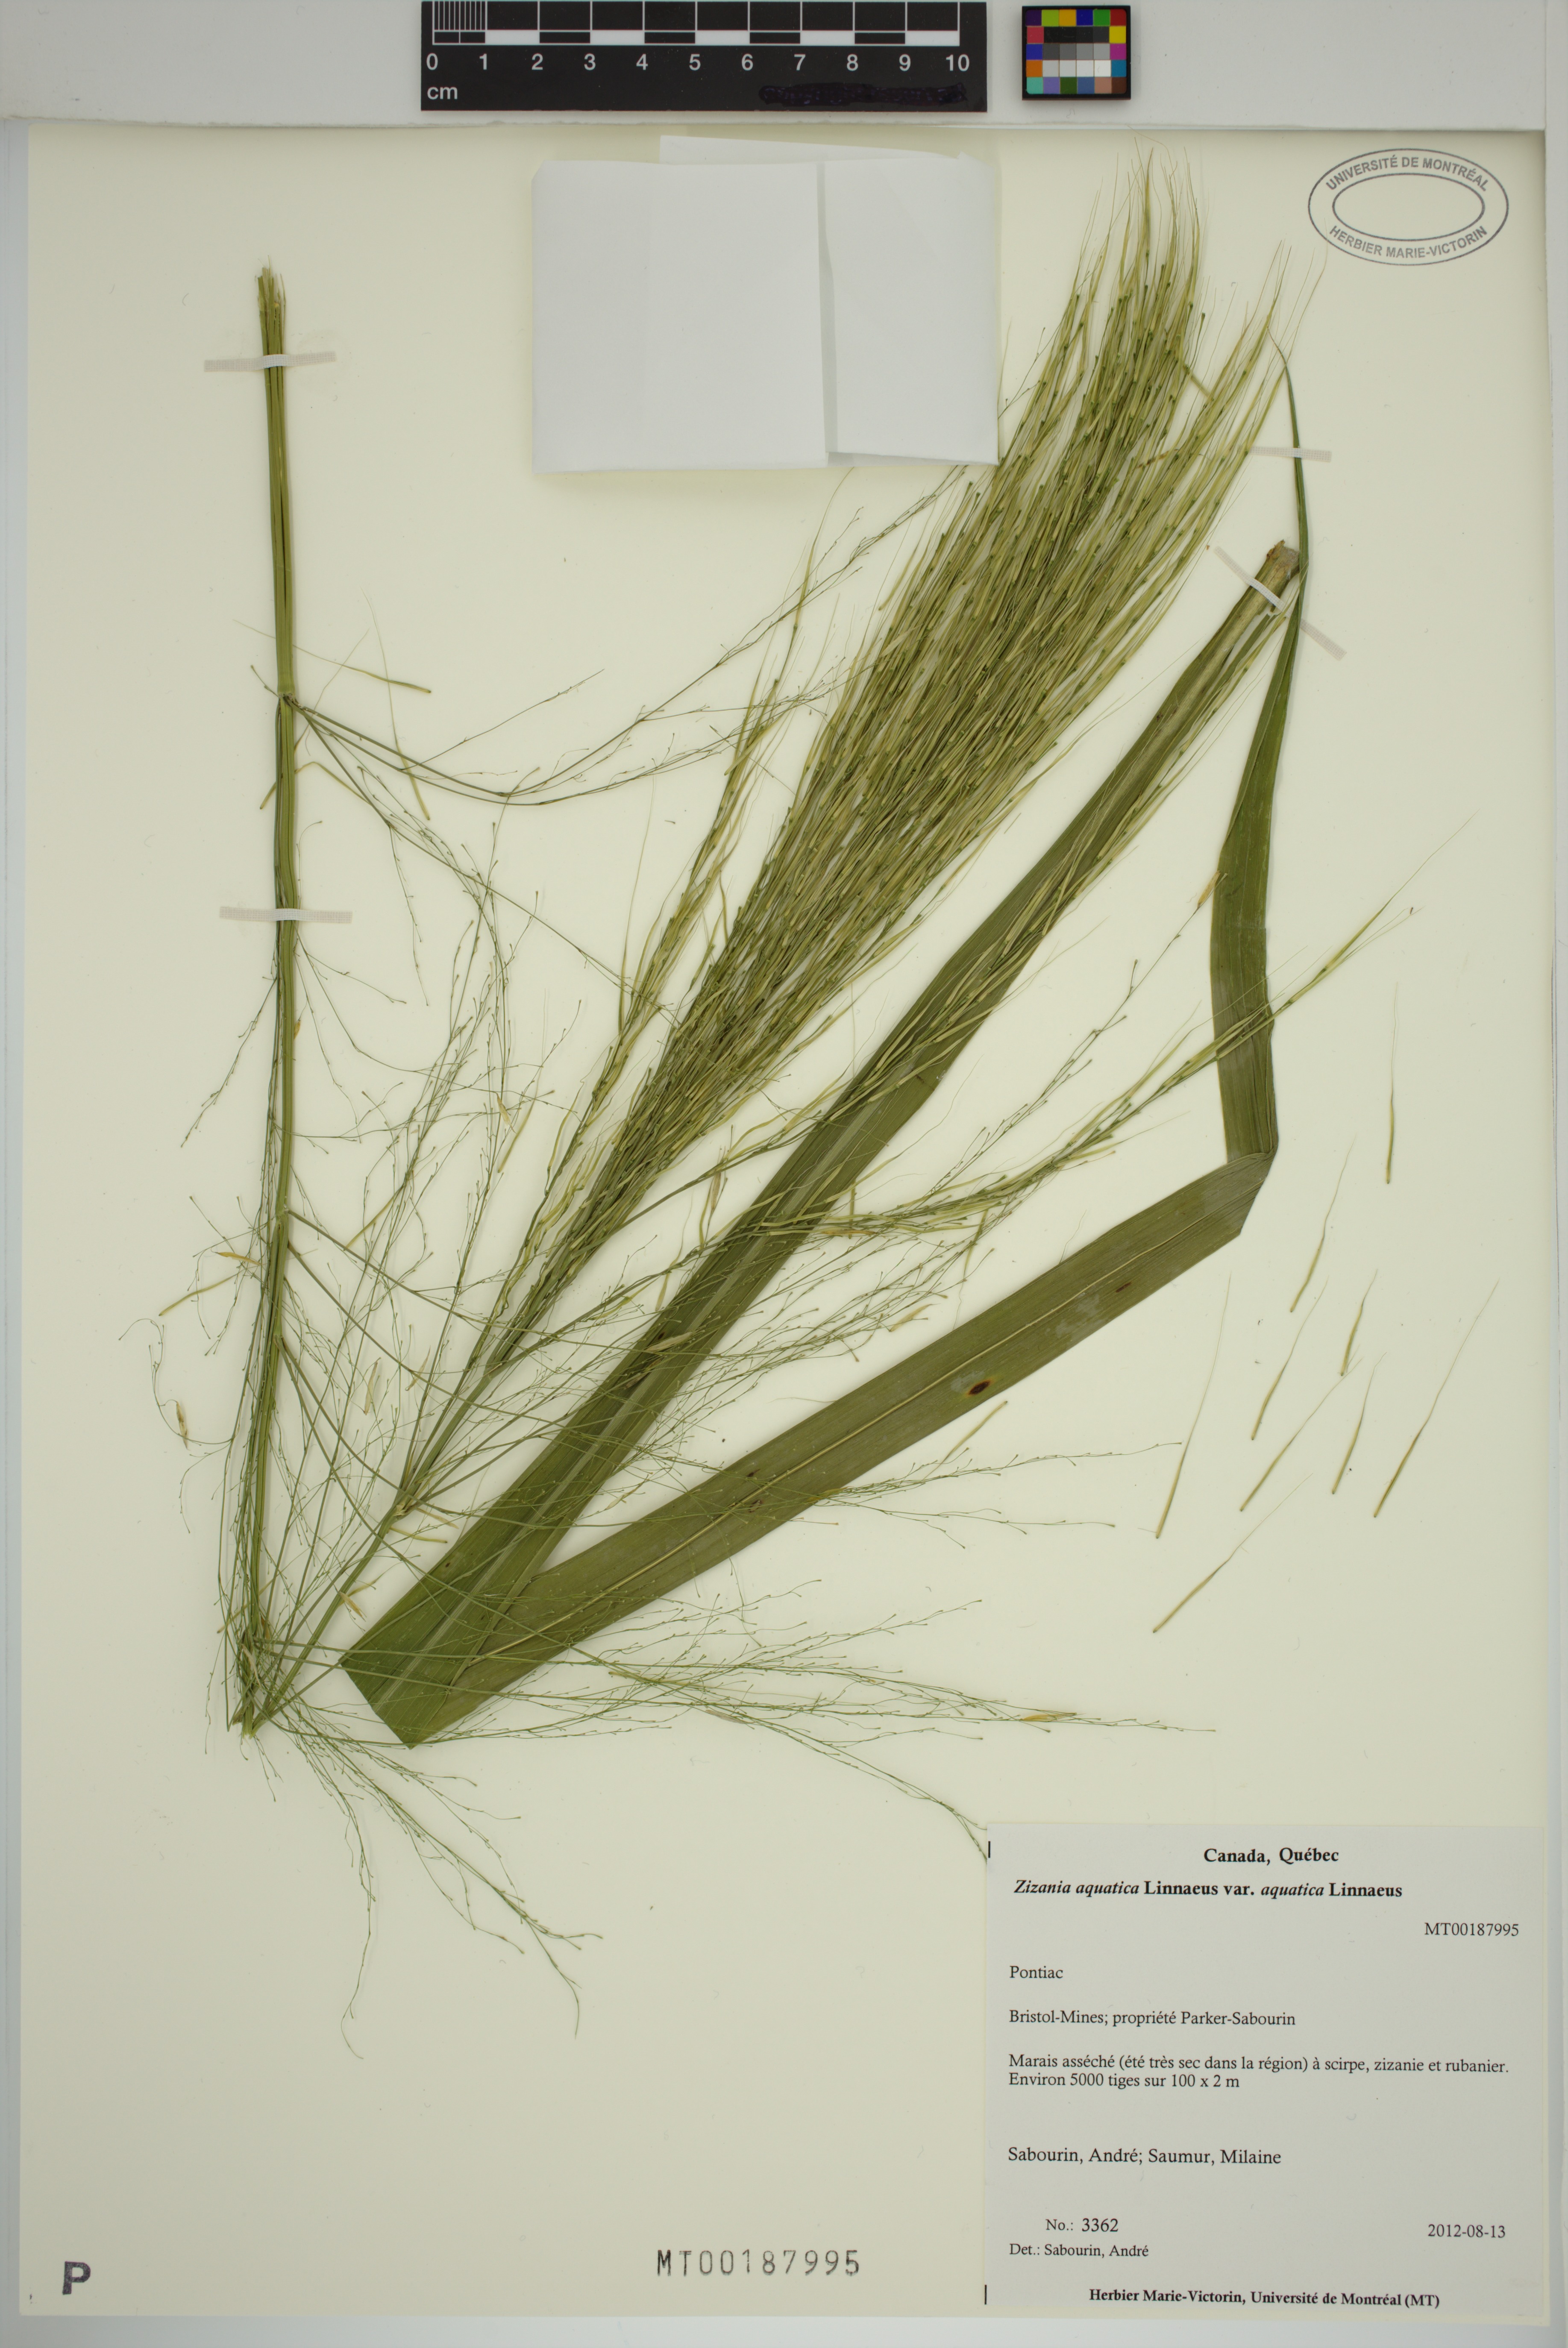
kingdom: Plantae
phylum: Tracheophyta
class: Liliopsida
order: Poales
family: Poaceae
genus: Zizania
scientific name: Zizania aquatica
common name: Annual wildrice
